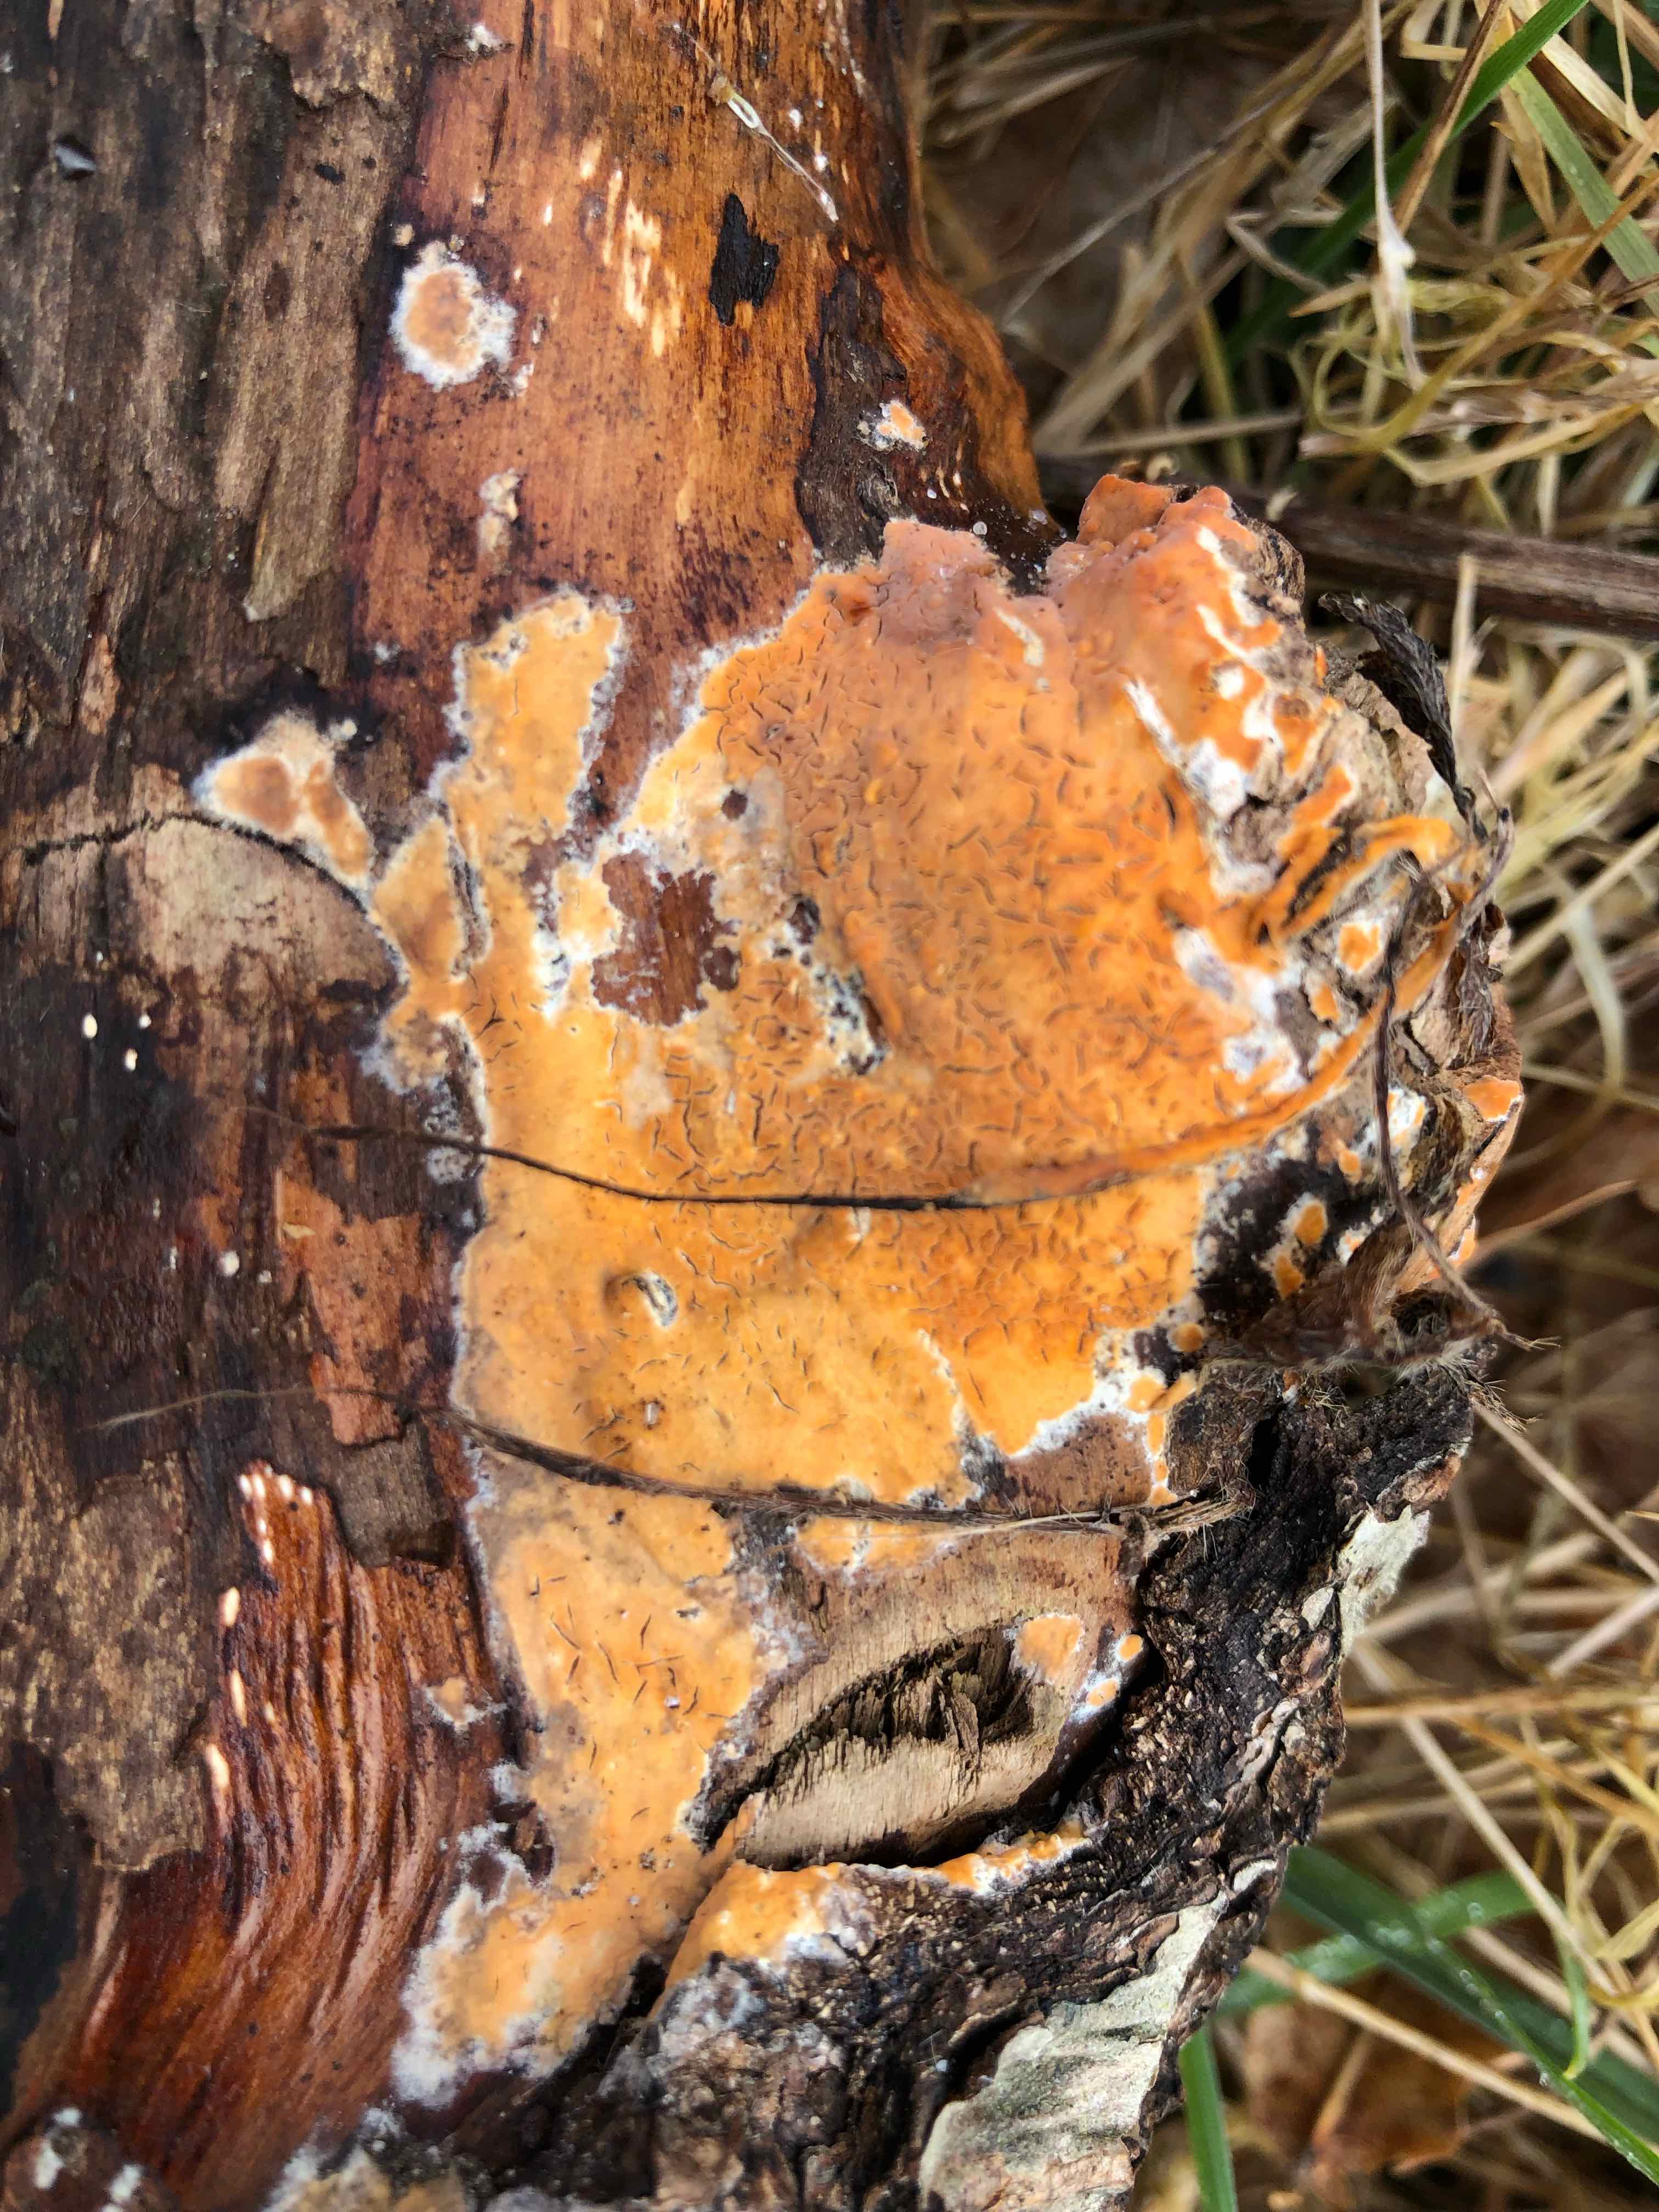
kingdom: Fungi
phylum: Basidiomycota
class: Agaricomycetes
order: Russulales
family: Peniophoraceae
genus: Peniophora
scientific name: Peniophora incarnata
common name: laksefarvet voksskind
